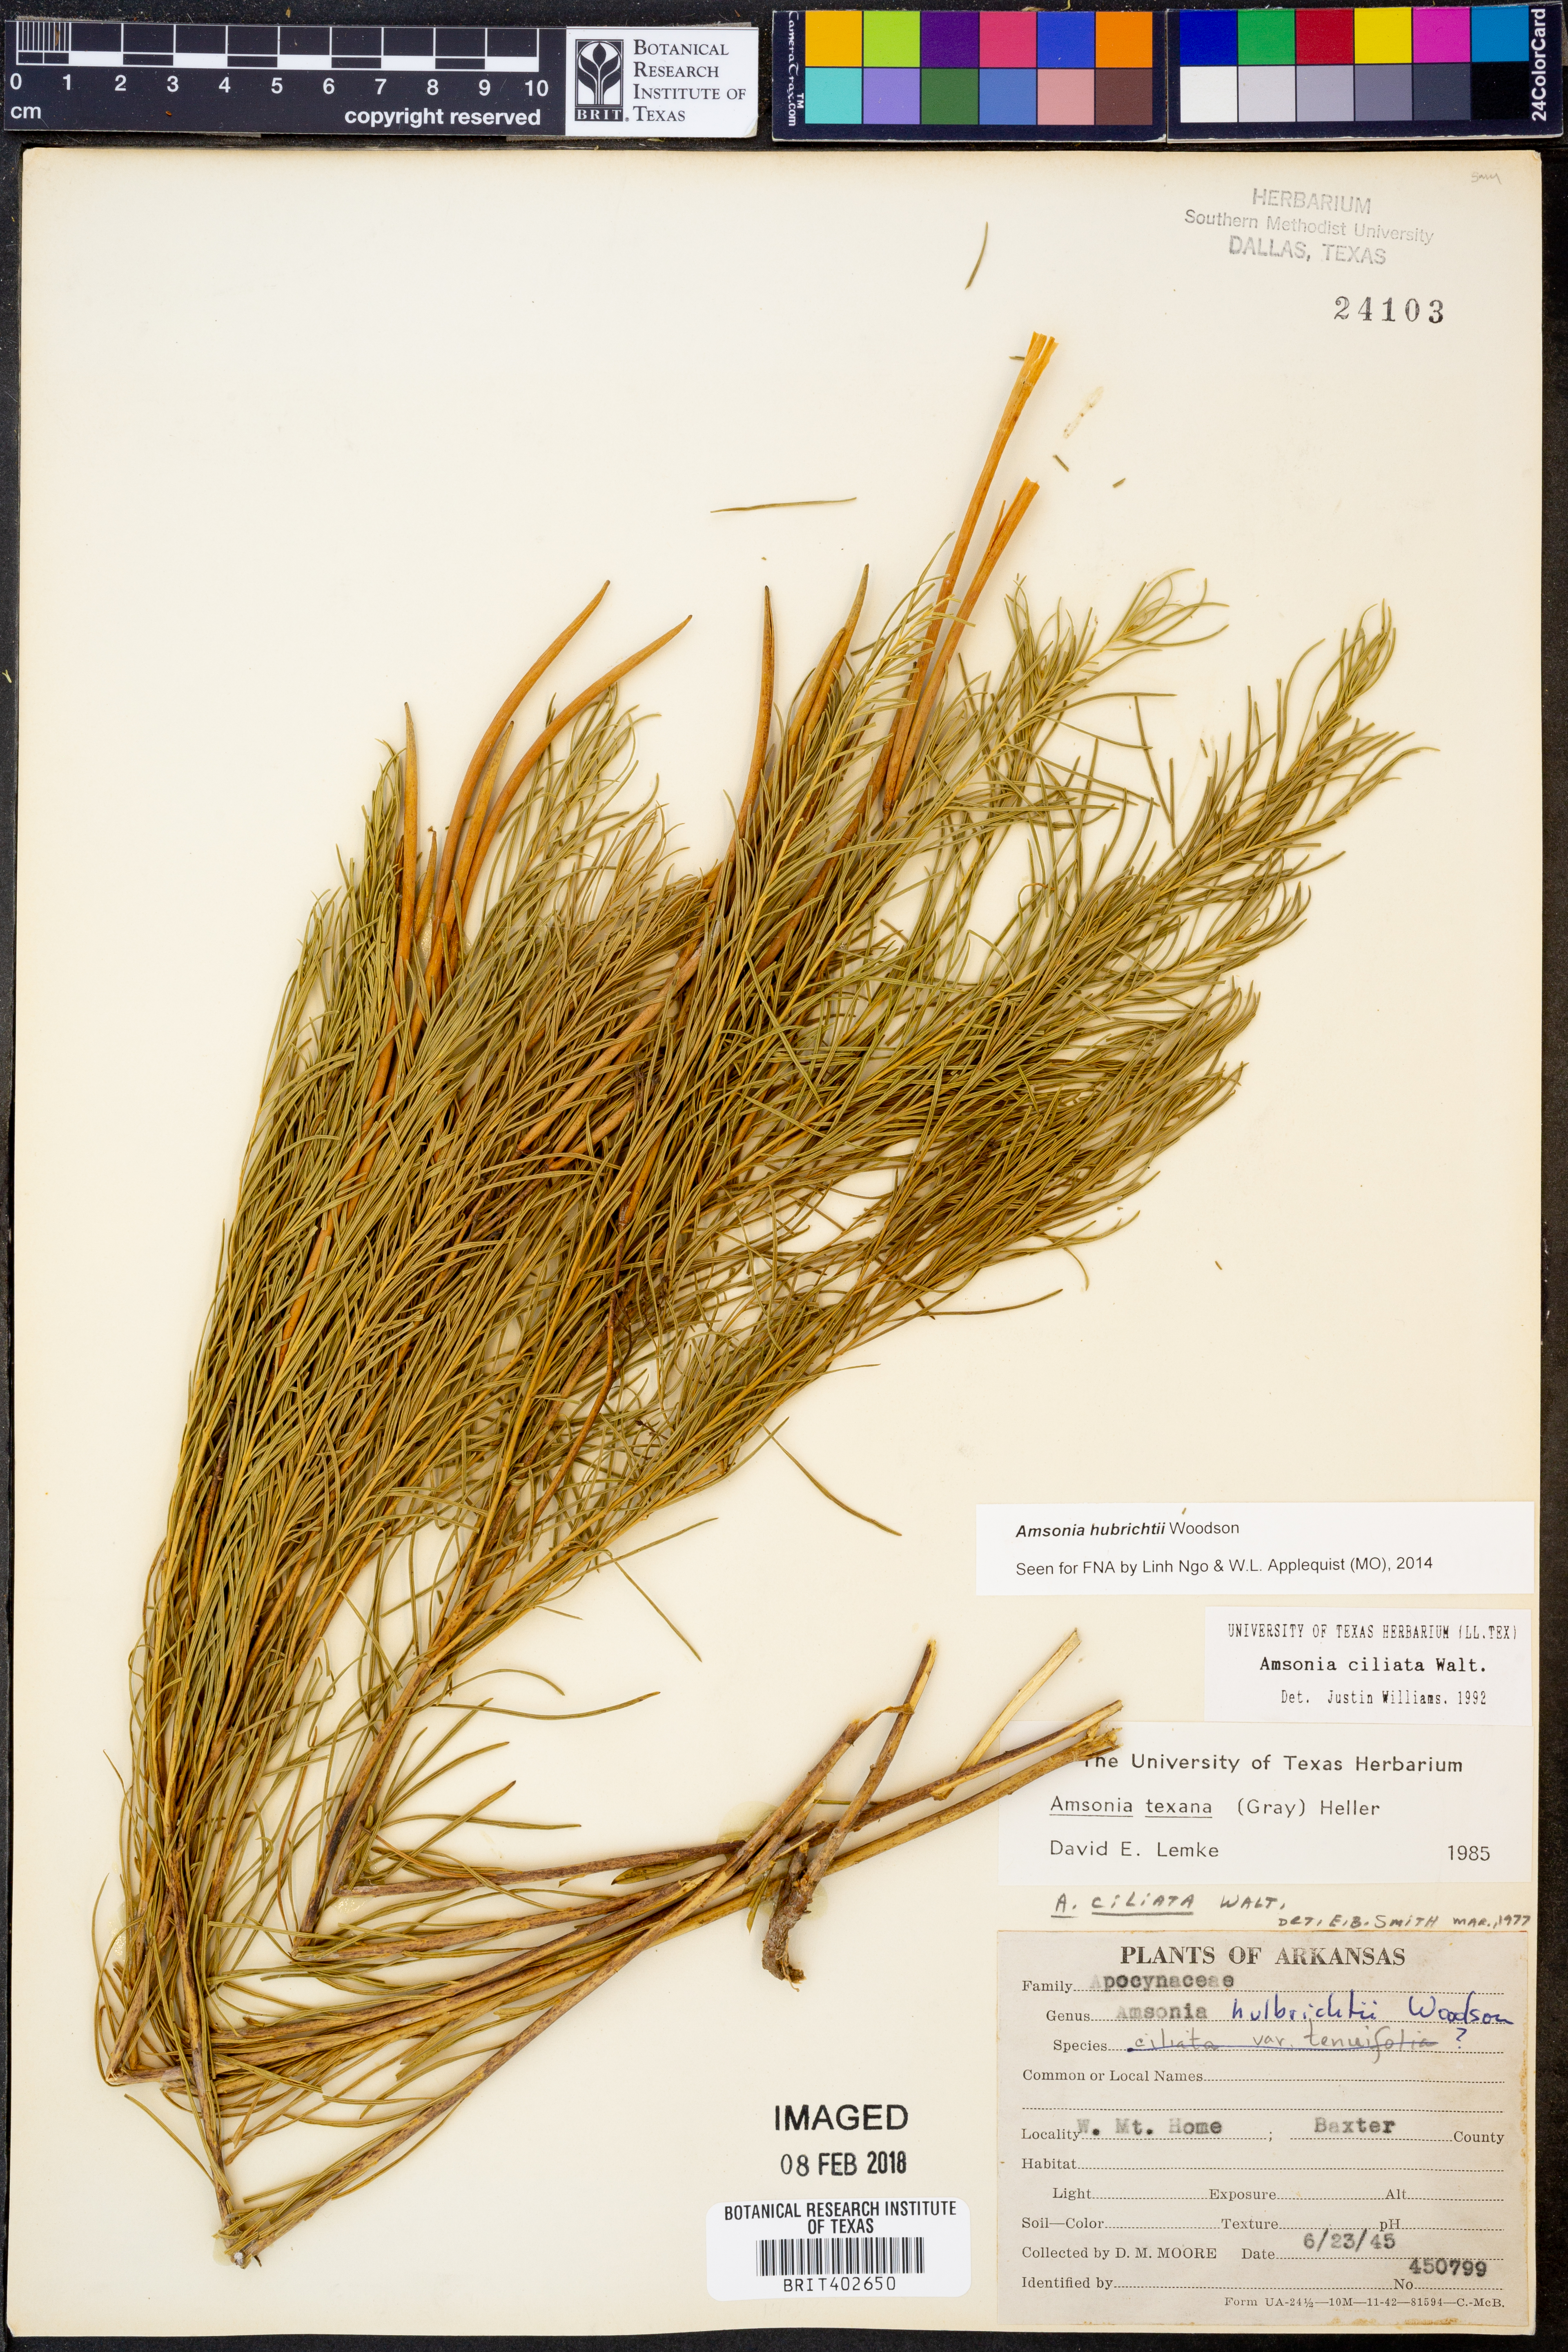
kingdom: Plantae
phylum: Tracheophyta
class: Magnoliopsida
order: Gentianales
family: Apocynaceae
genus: Amsonia
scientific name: Amsonia hubrichtii
